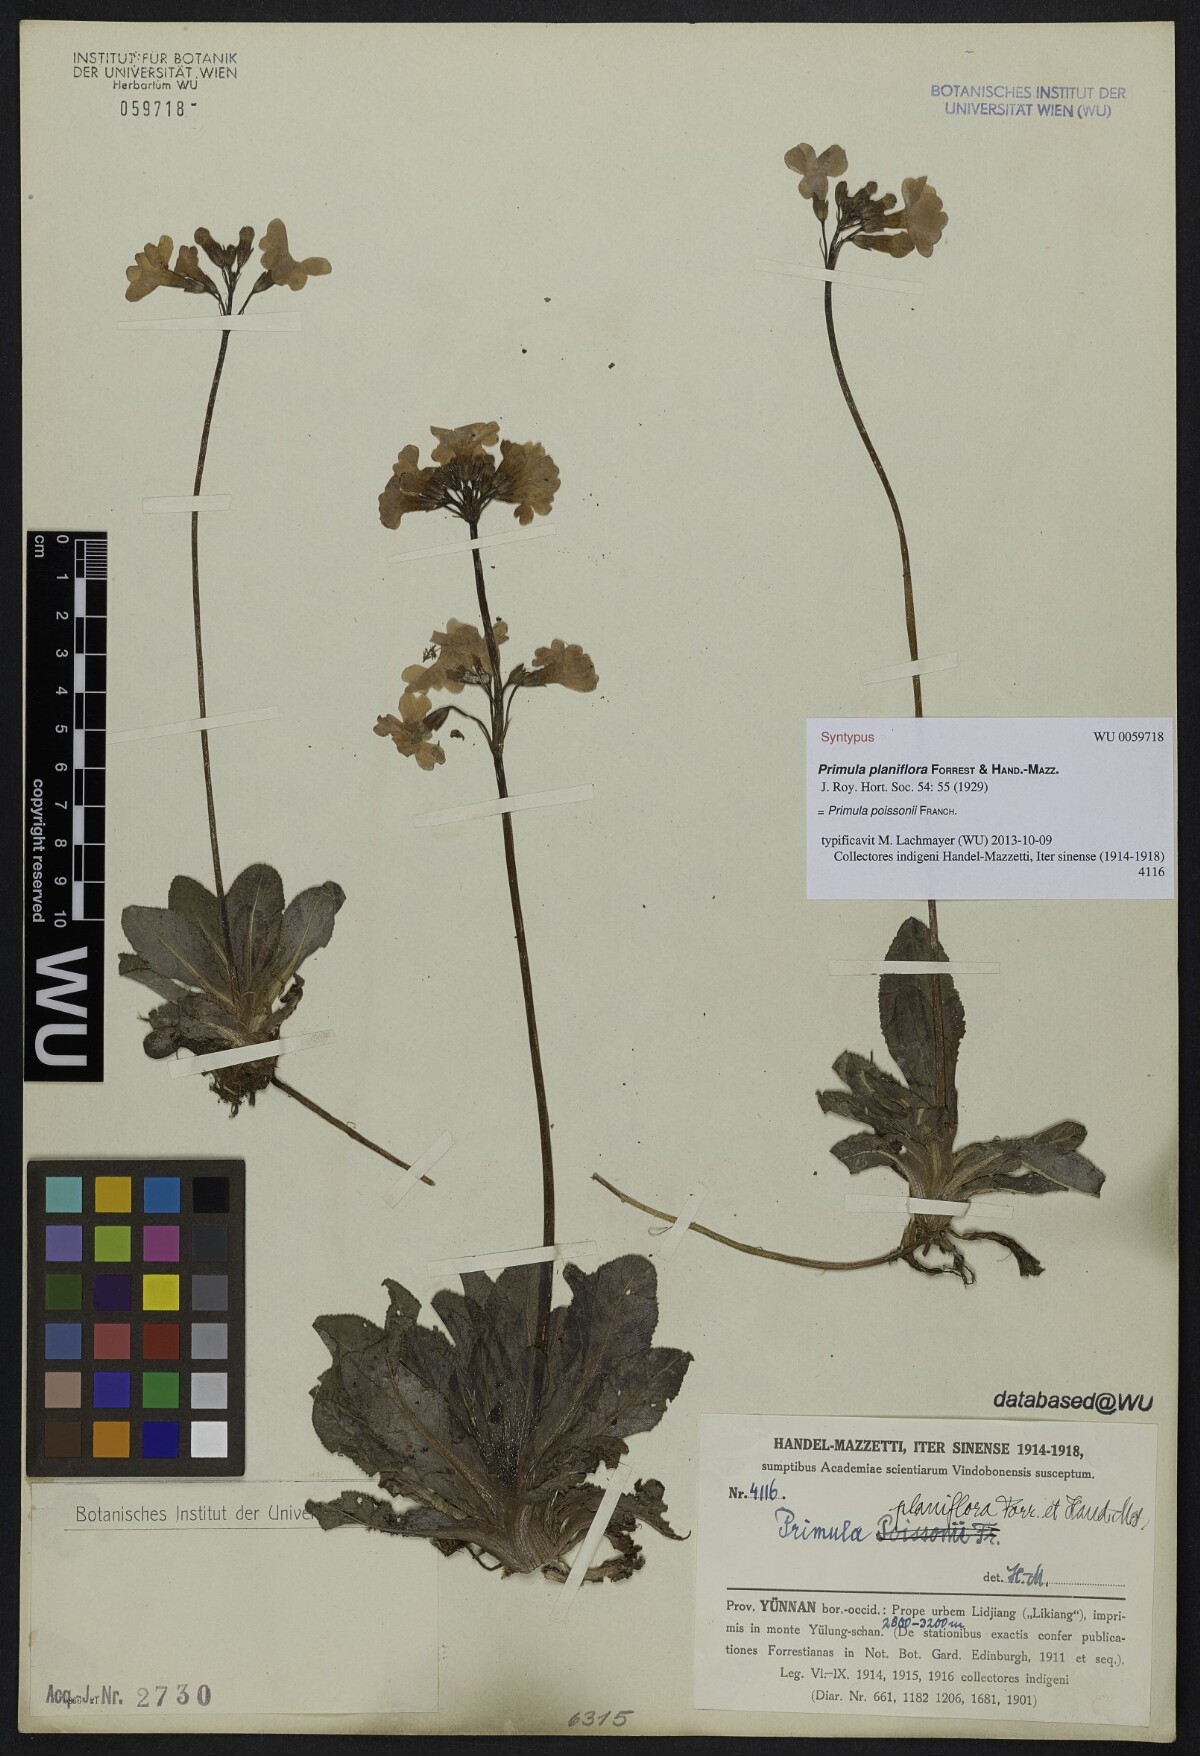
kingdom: Plantae
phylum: Tracheophyta
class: Magnoliopsida
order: Ericales
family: Primulaceae
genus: Primula
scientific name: Primula poissonii
